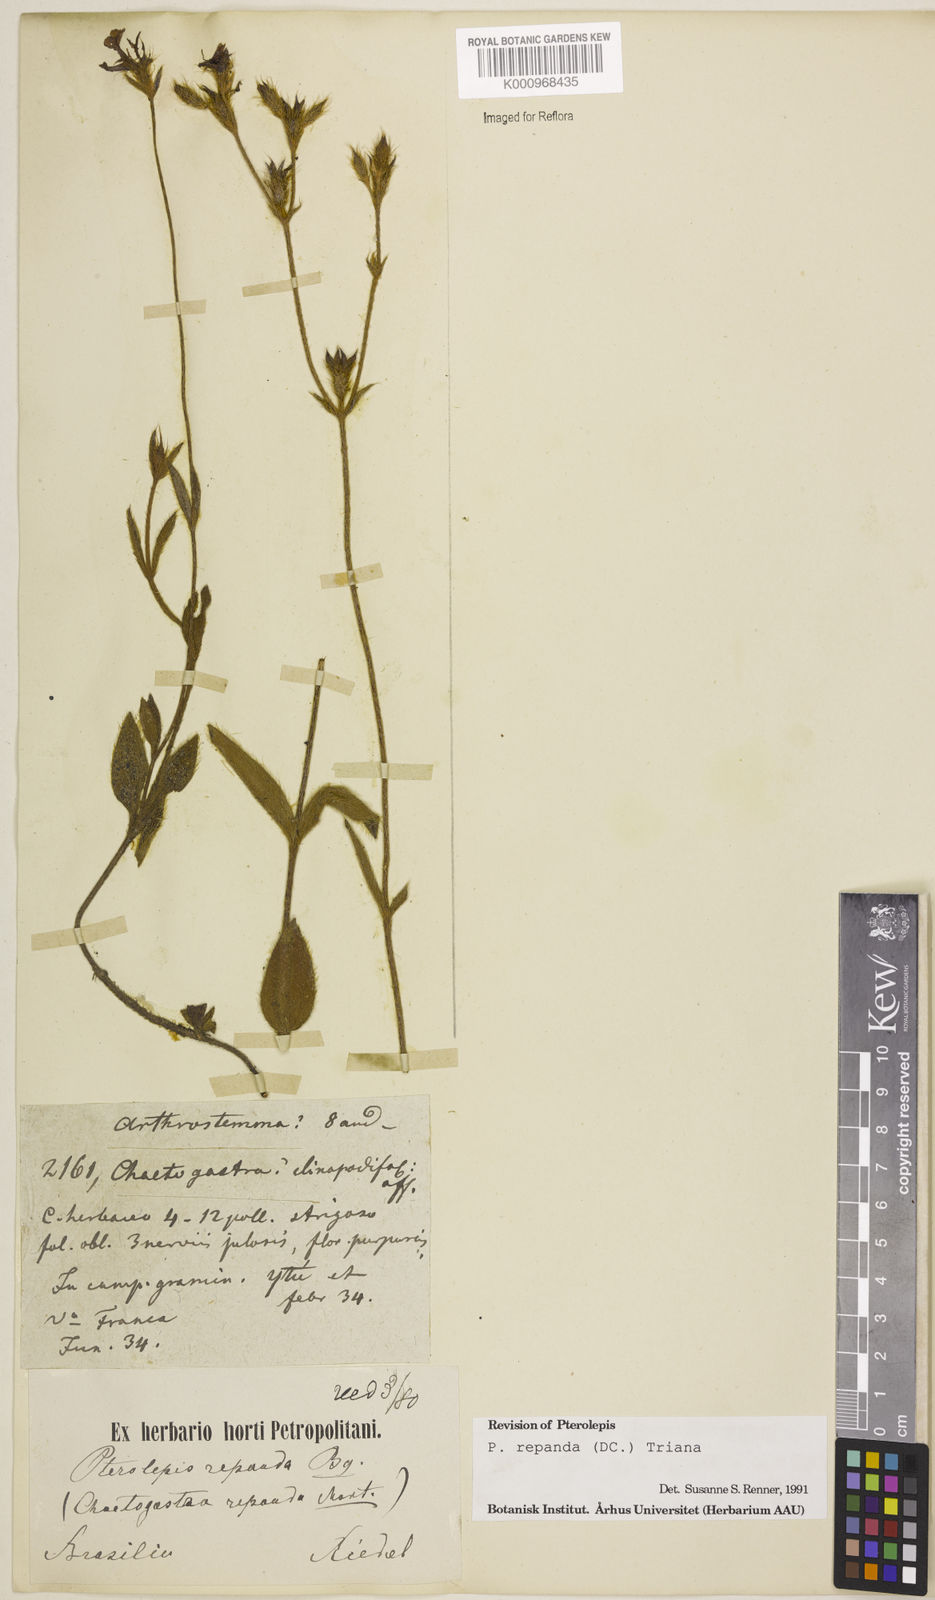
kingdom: Plantae
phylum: Tracheophyta
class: Magnoliopsida
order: Myrtales
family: Melastomataceae
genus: Pterolepis
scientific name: Pterolepis repanda
